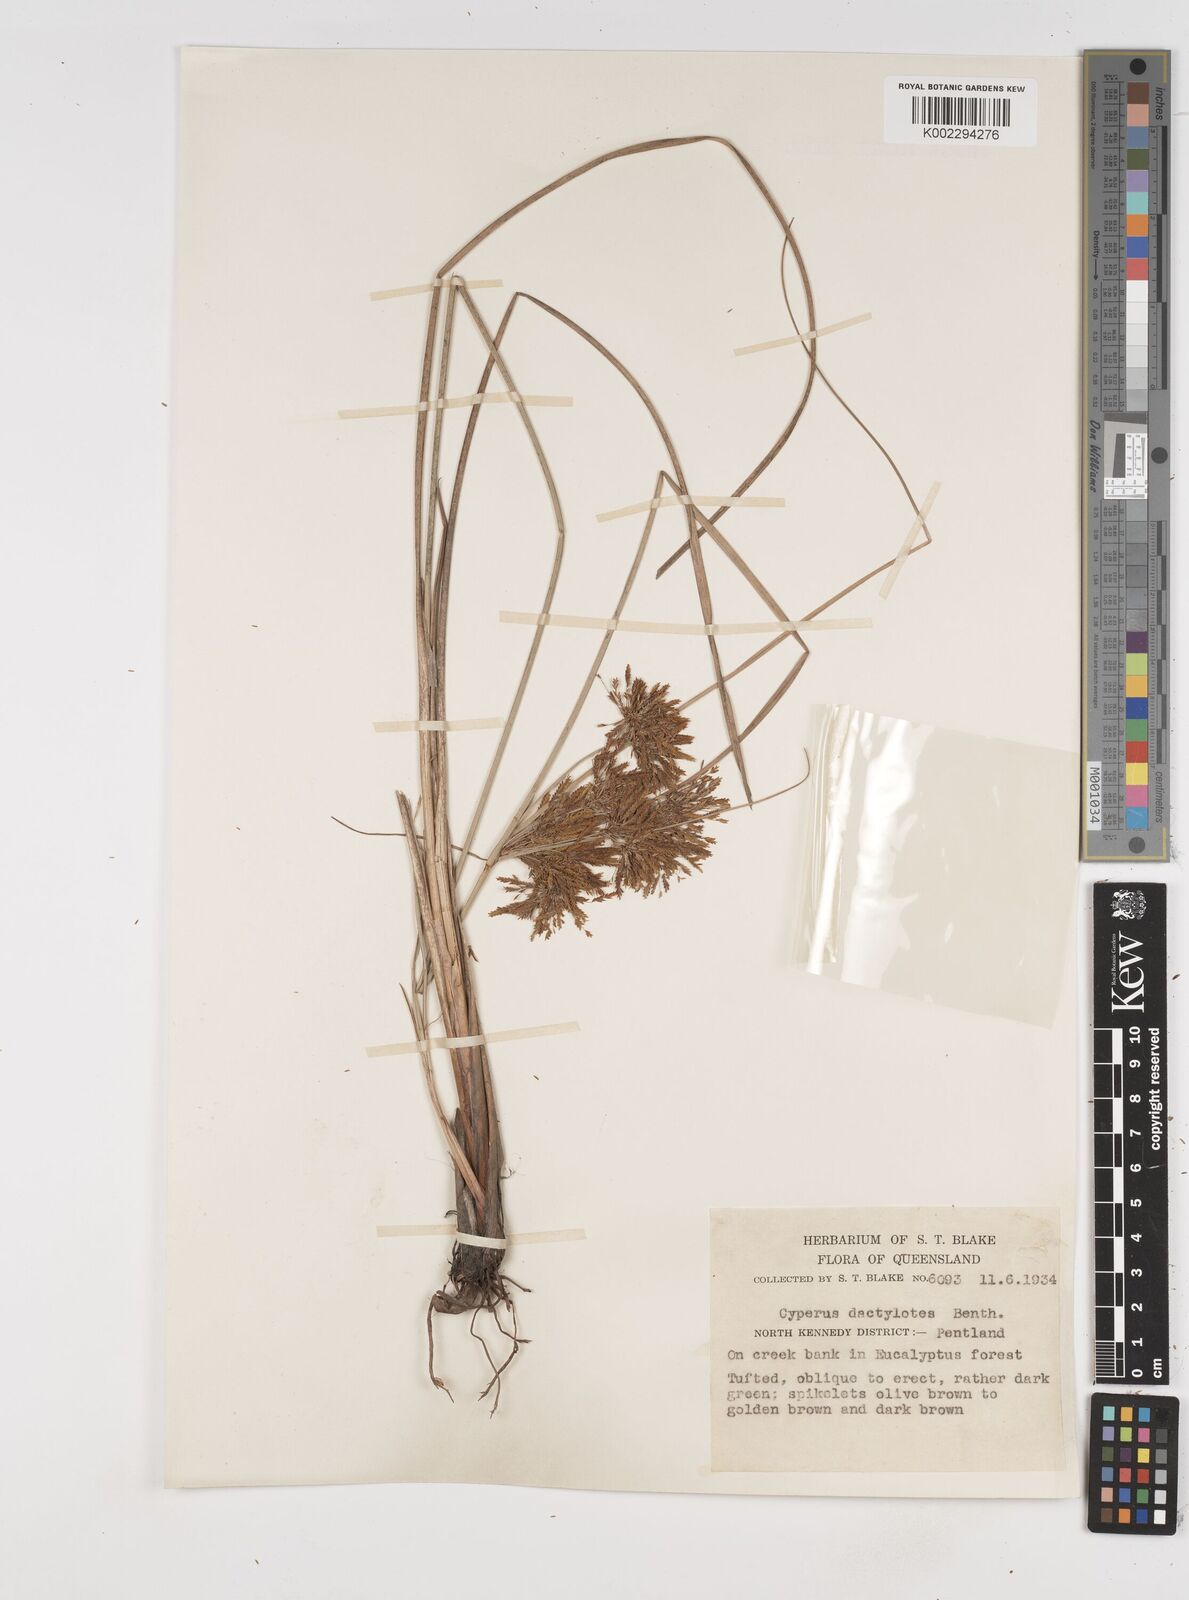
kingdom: Plantae
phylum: Tracheophyta
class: Liliopsida
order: Poales
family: Cyperaceae
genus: Cyperus
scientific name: Cyperus dactylotes
